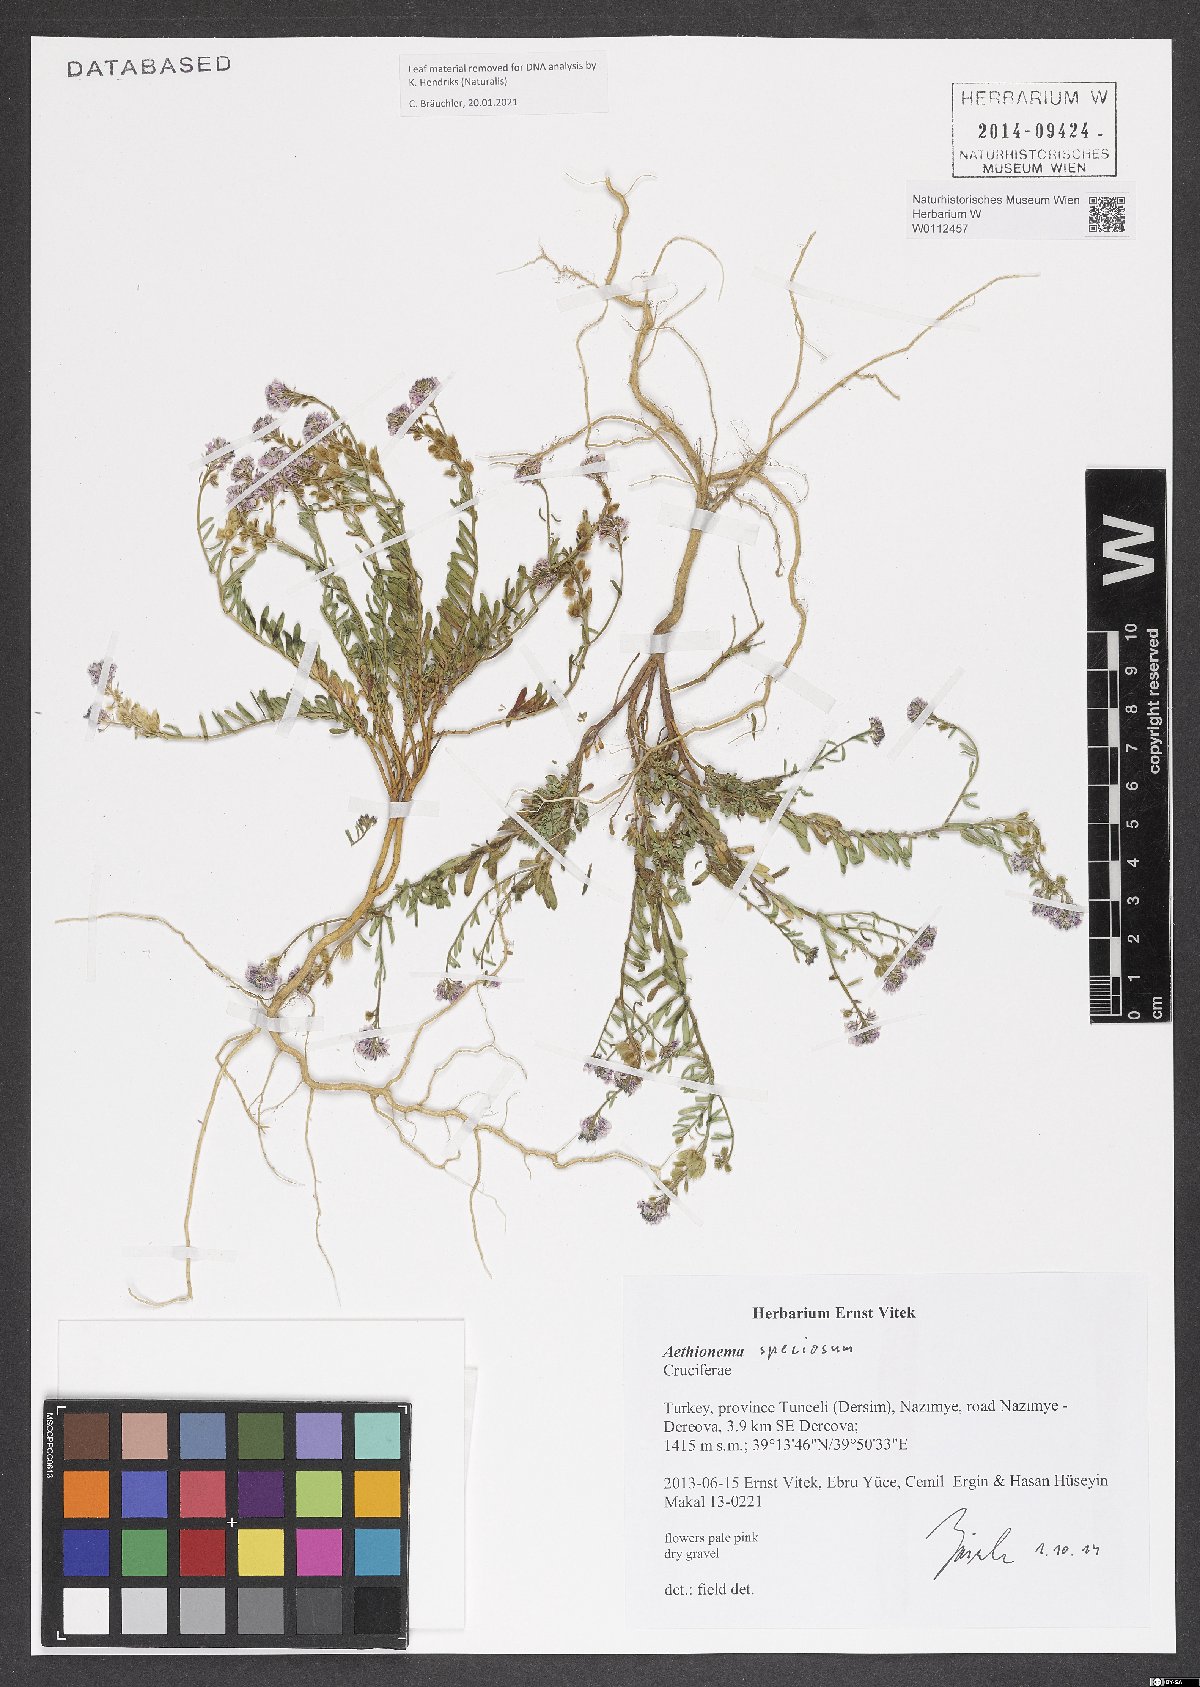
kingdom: Plantae
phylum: Tracheophyta
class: Magnoliopsida
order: Brassicales
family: Brassicaceae
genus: Aethionema
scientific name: Aethionema speciosum
